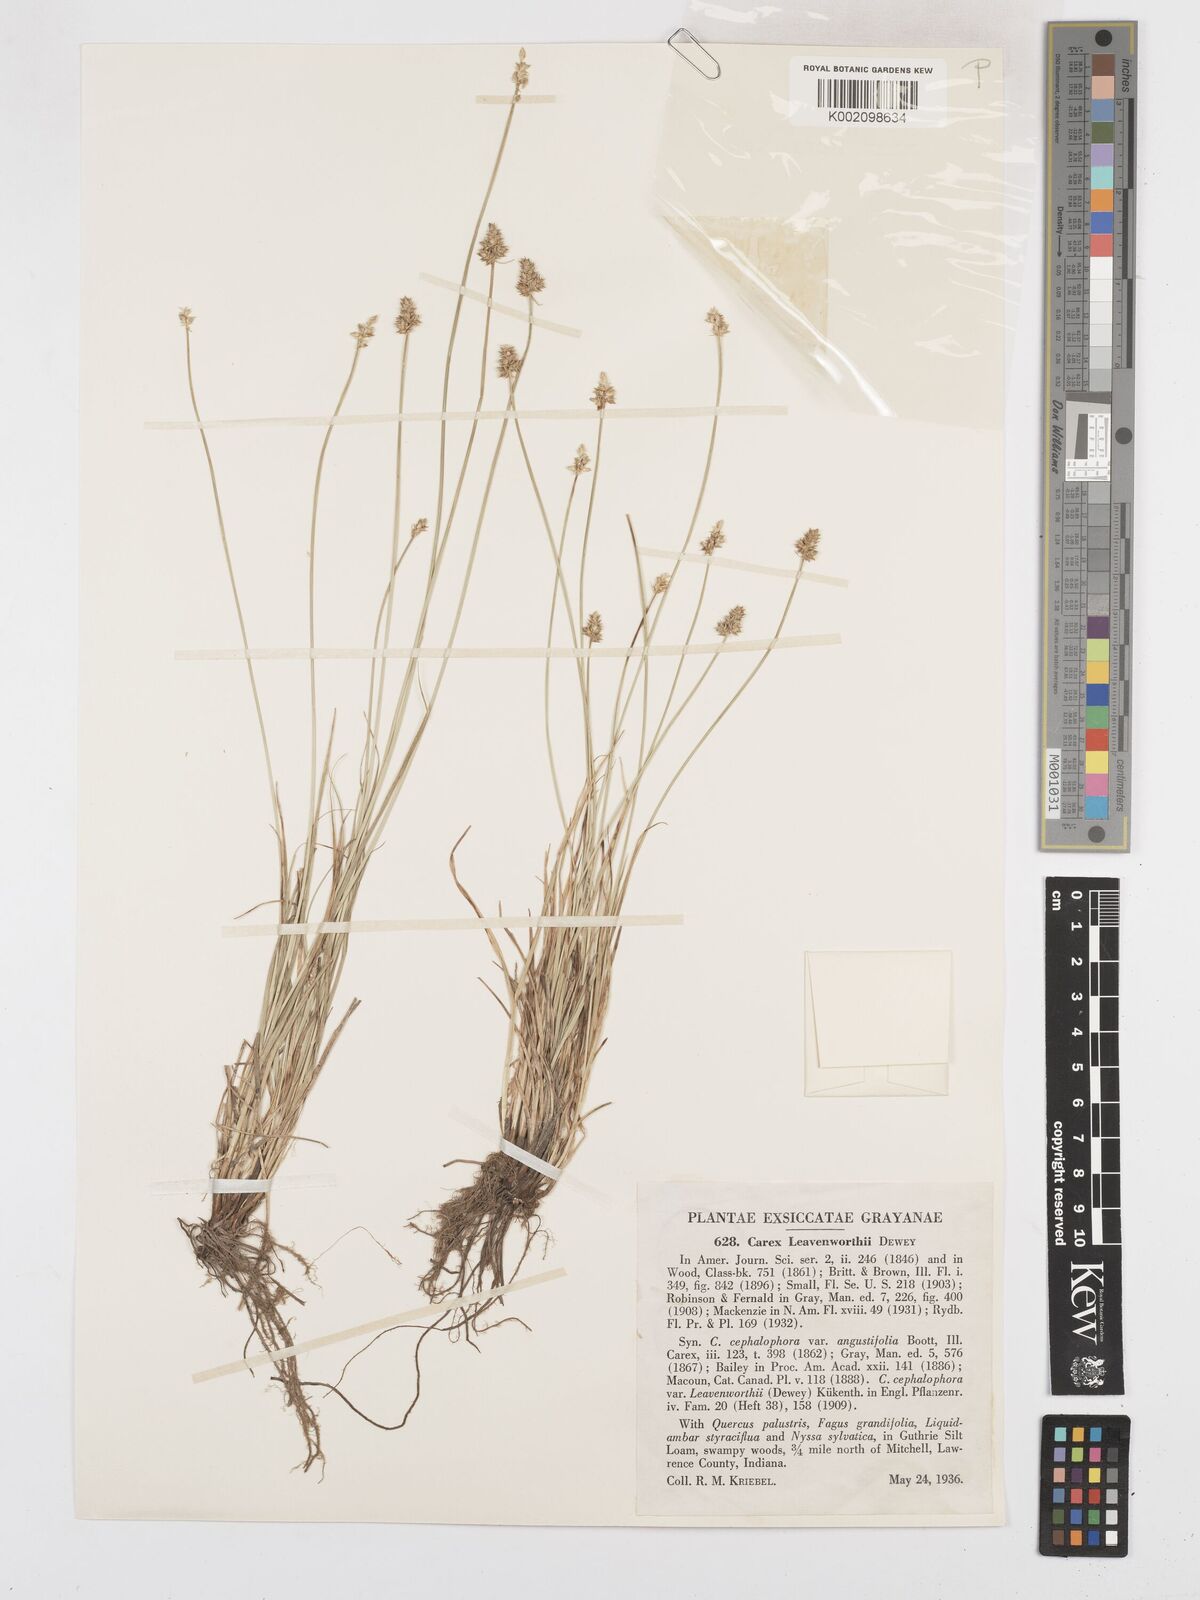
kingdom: Plantae
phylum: Tracheophyta
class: Liliopsida
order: Poales
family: Cyperaceae
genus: Carex
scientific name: Carex leavenworthii
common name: Leavenworth's bracted sedge
